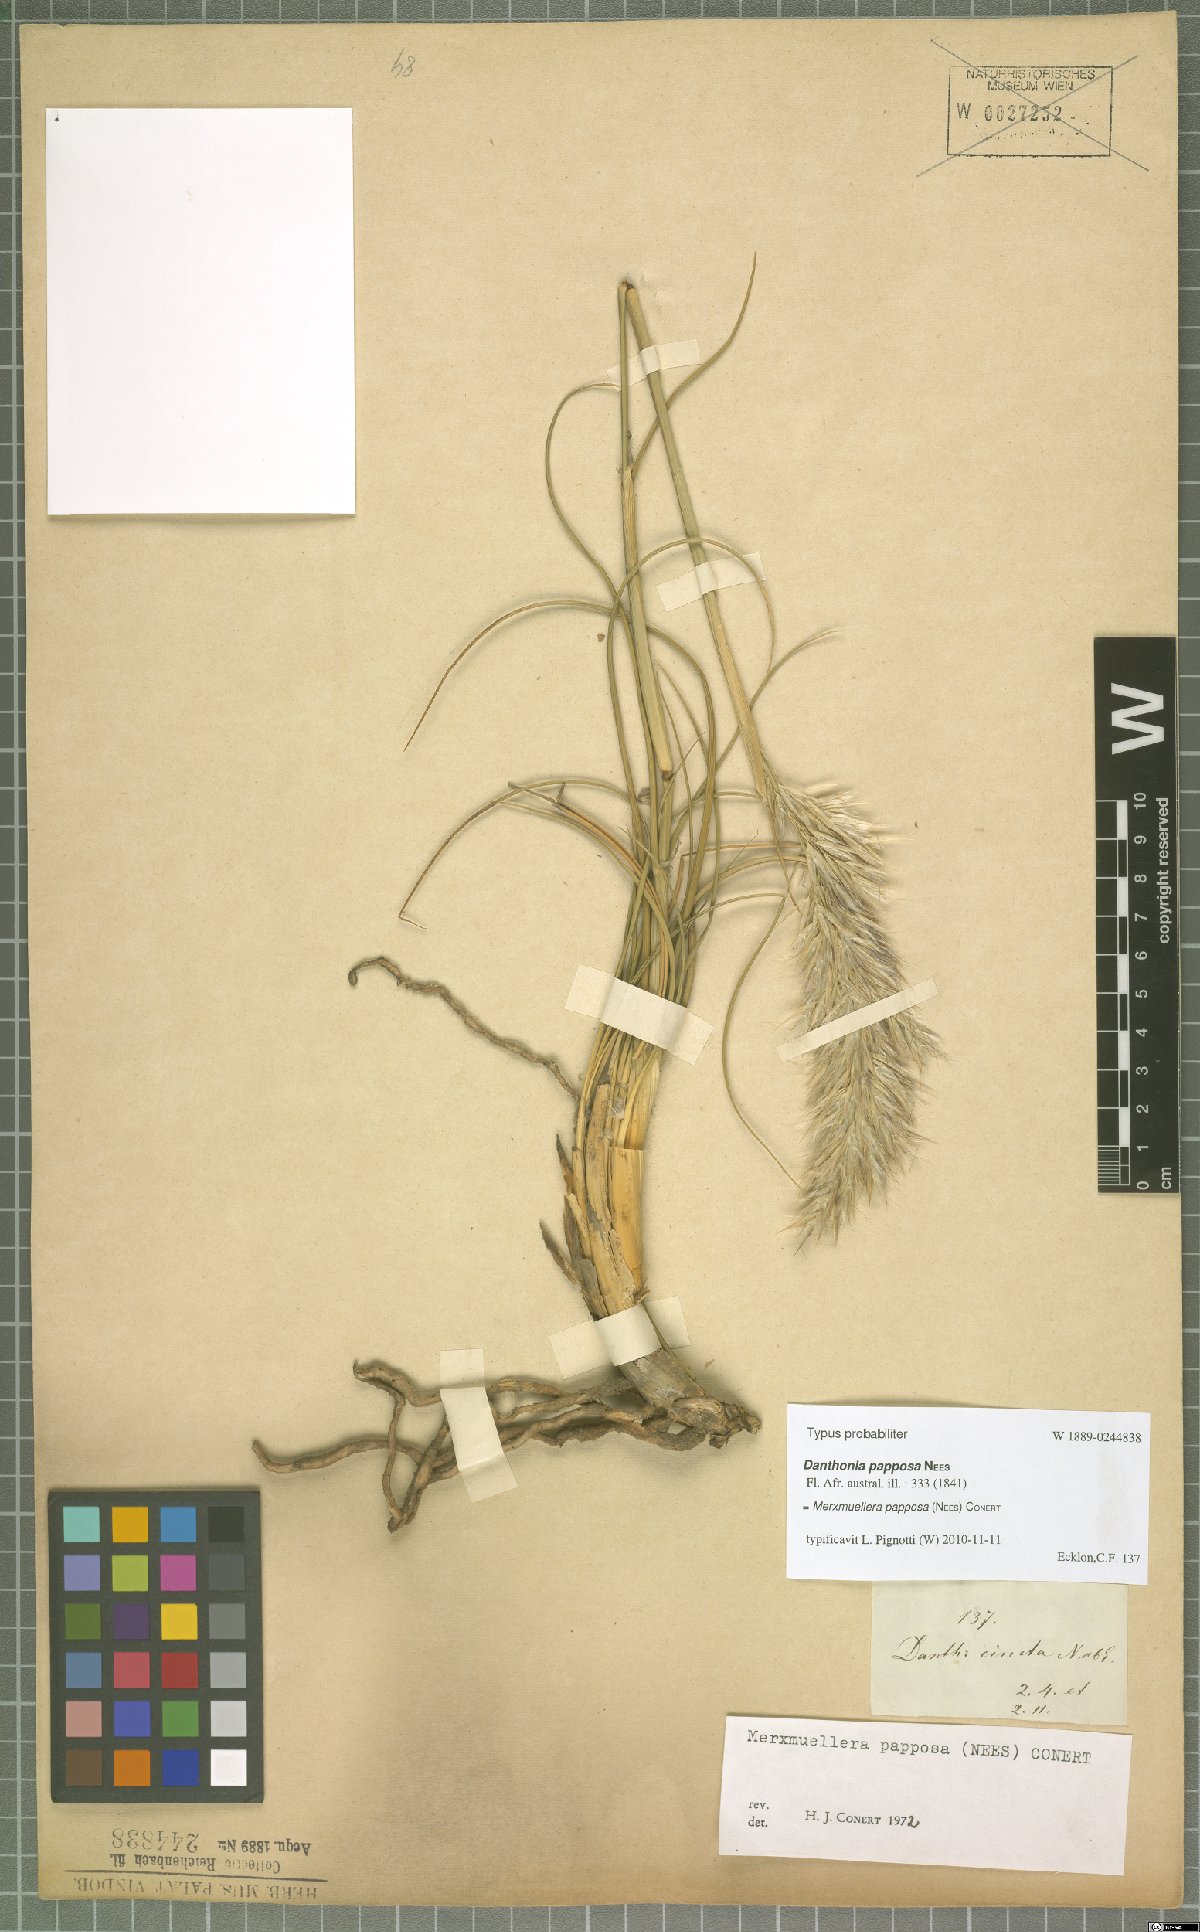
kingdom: Plantae
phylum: Tracheophyta
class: Liliopsida
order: Poales
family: Poaceae
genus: Ellisochloa
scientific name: Ellisochloa papposa
